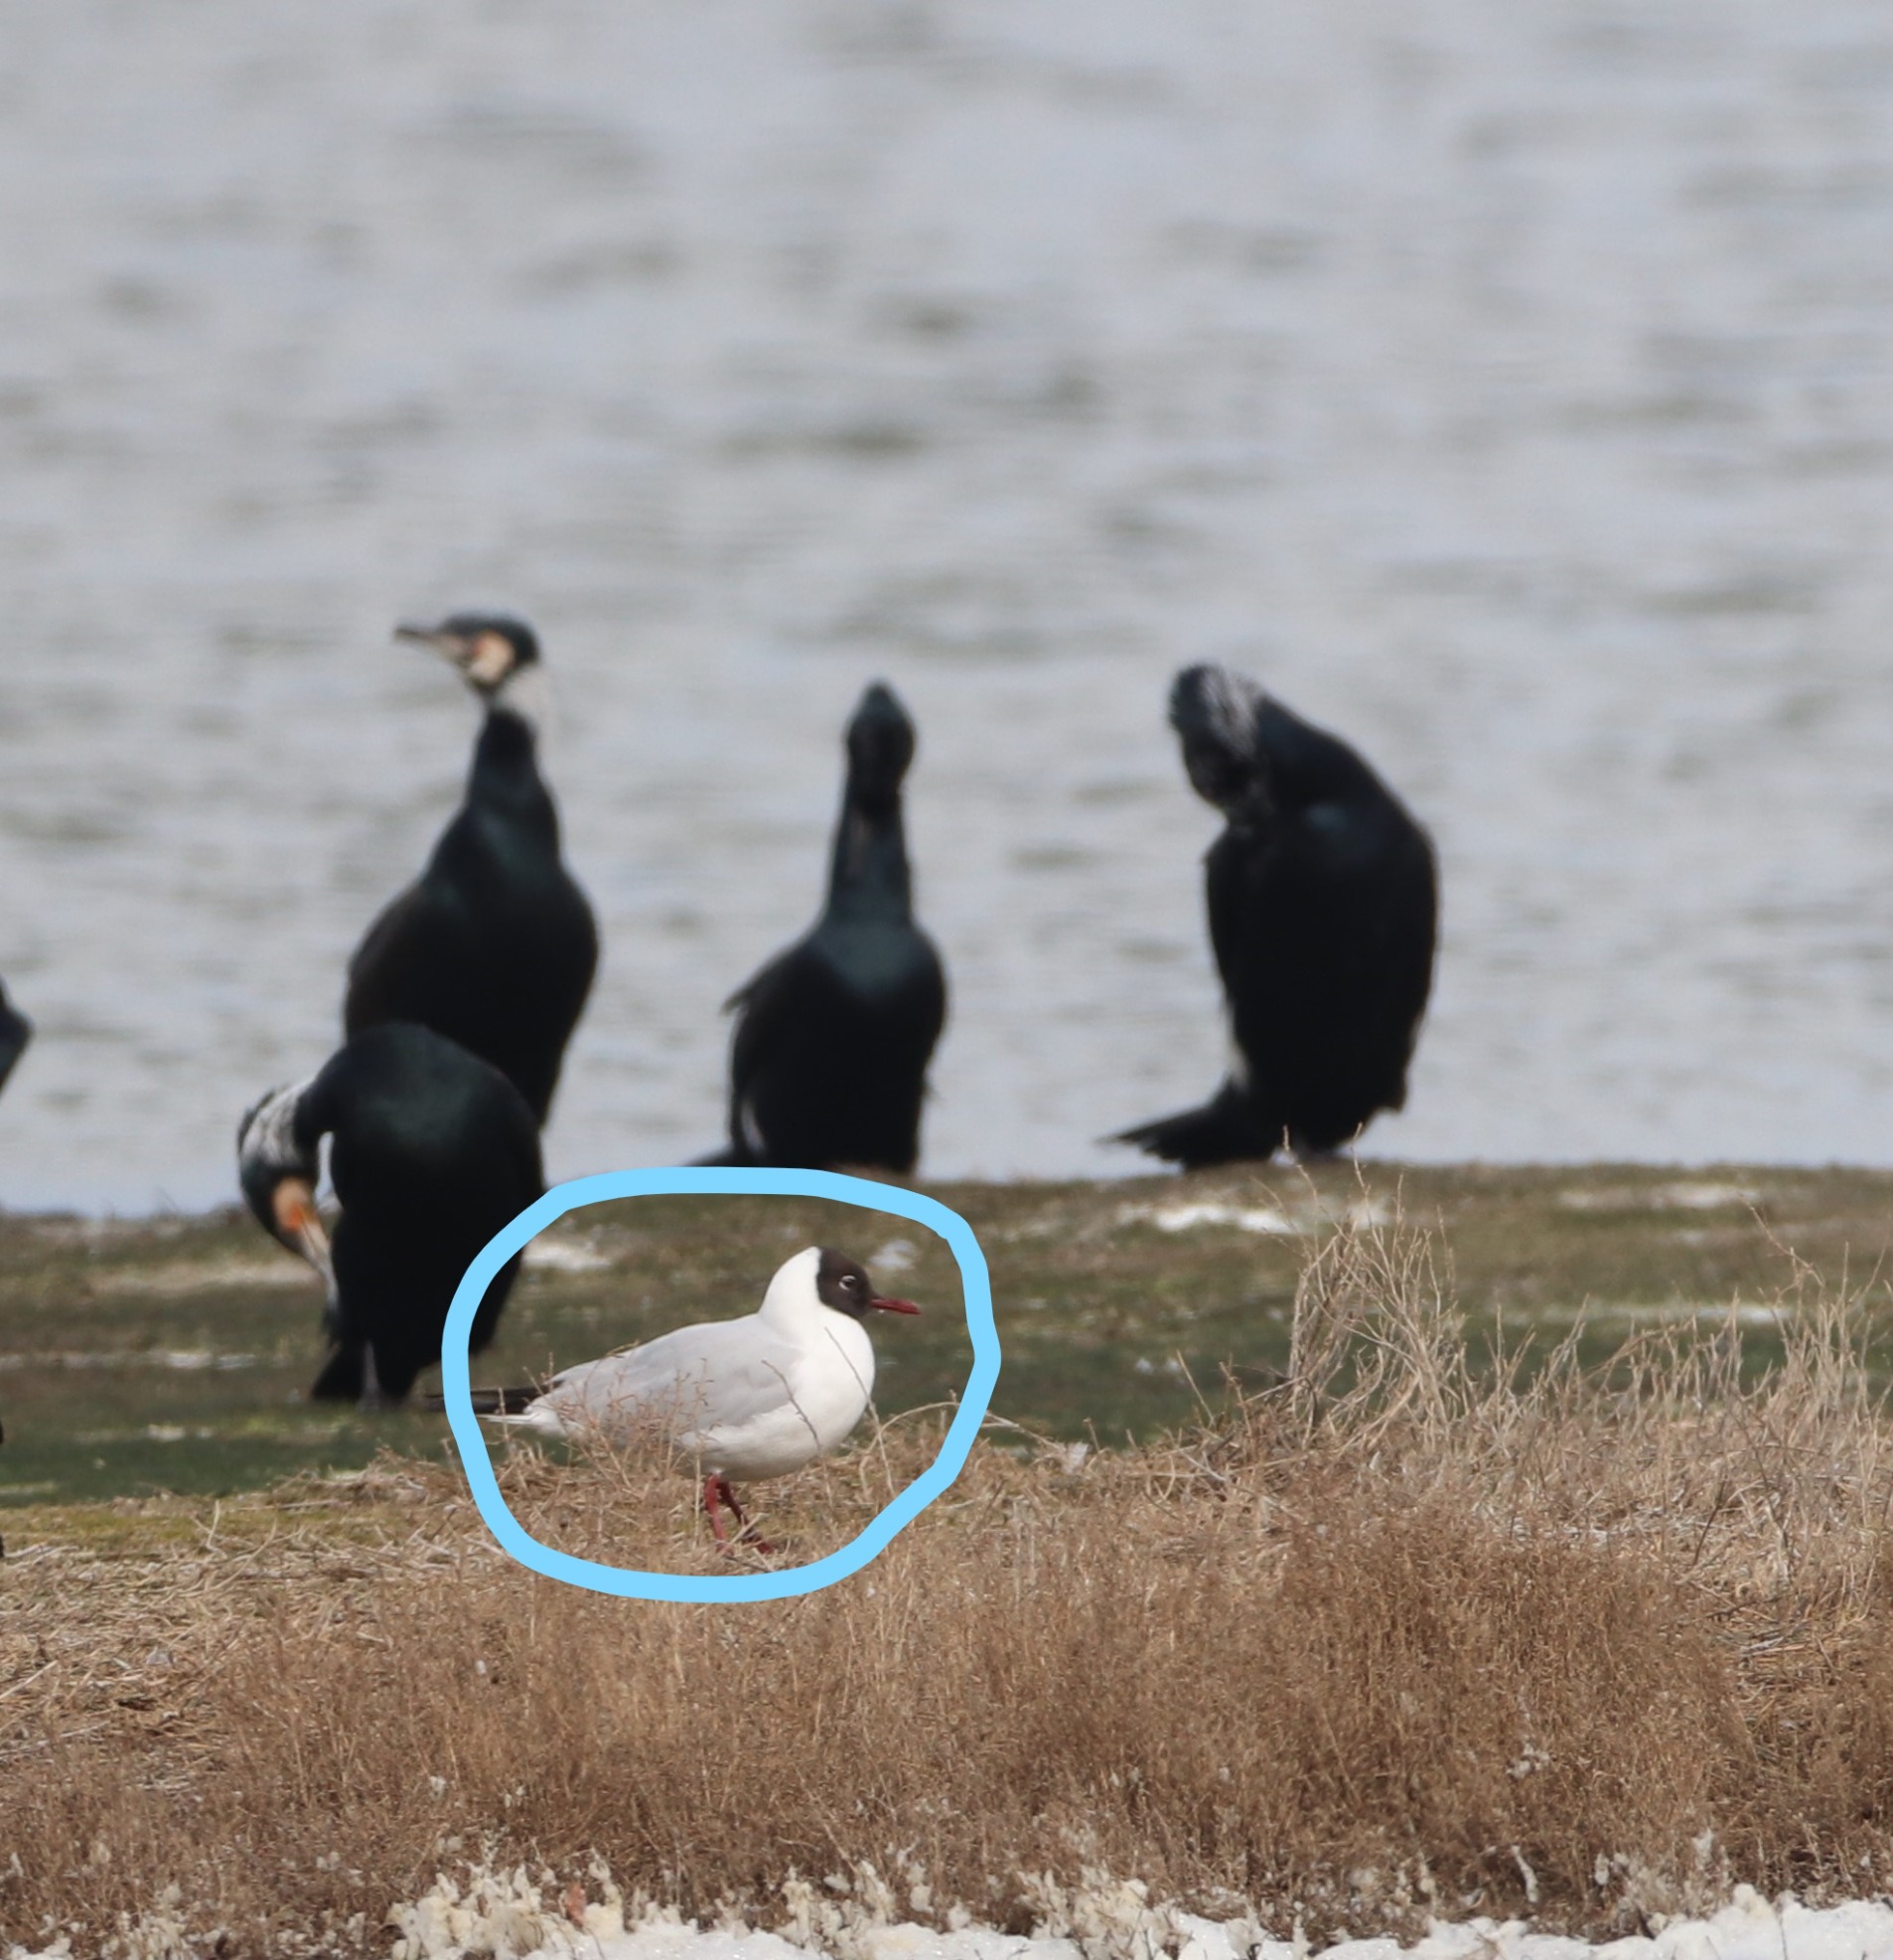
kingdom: Animalia
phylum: Chordata
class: Aves
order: Charadriiformes
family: Laridae
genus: Chroicocephalus
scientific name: Chroicocephalus ridibundus
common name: Hættemåge
